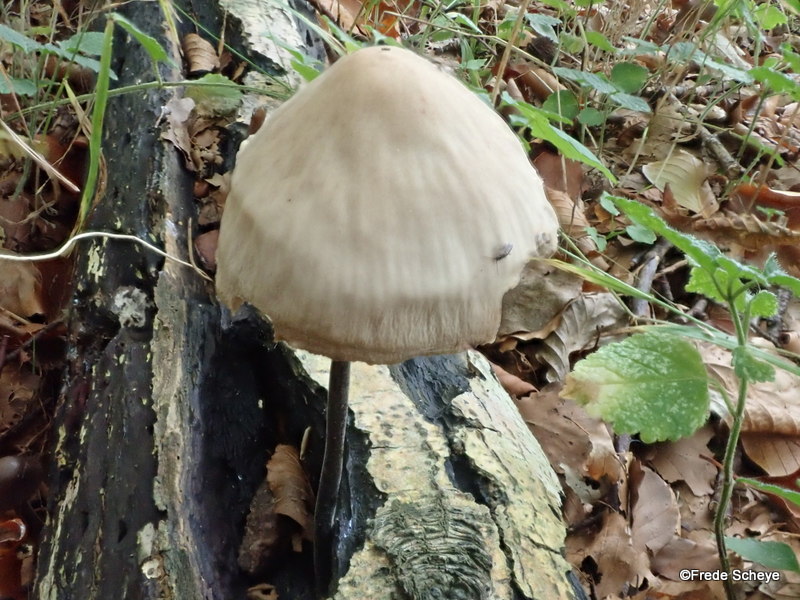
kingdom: Fungi
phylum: Basidiomycota
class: Agaricomycetes
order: Agaricales
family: Omphalotaceae
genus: Mycetinis
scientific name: Mycetinis alliaceus
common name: stor løghat
